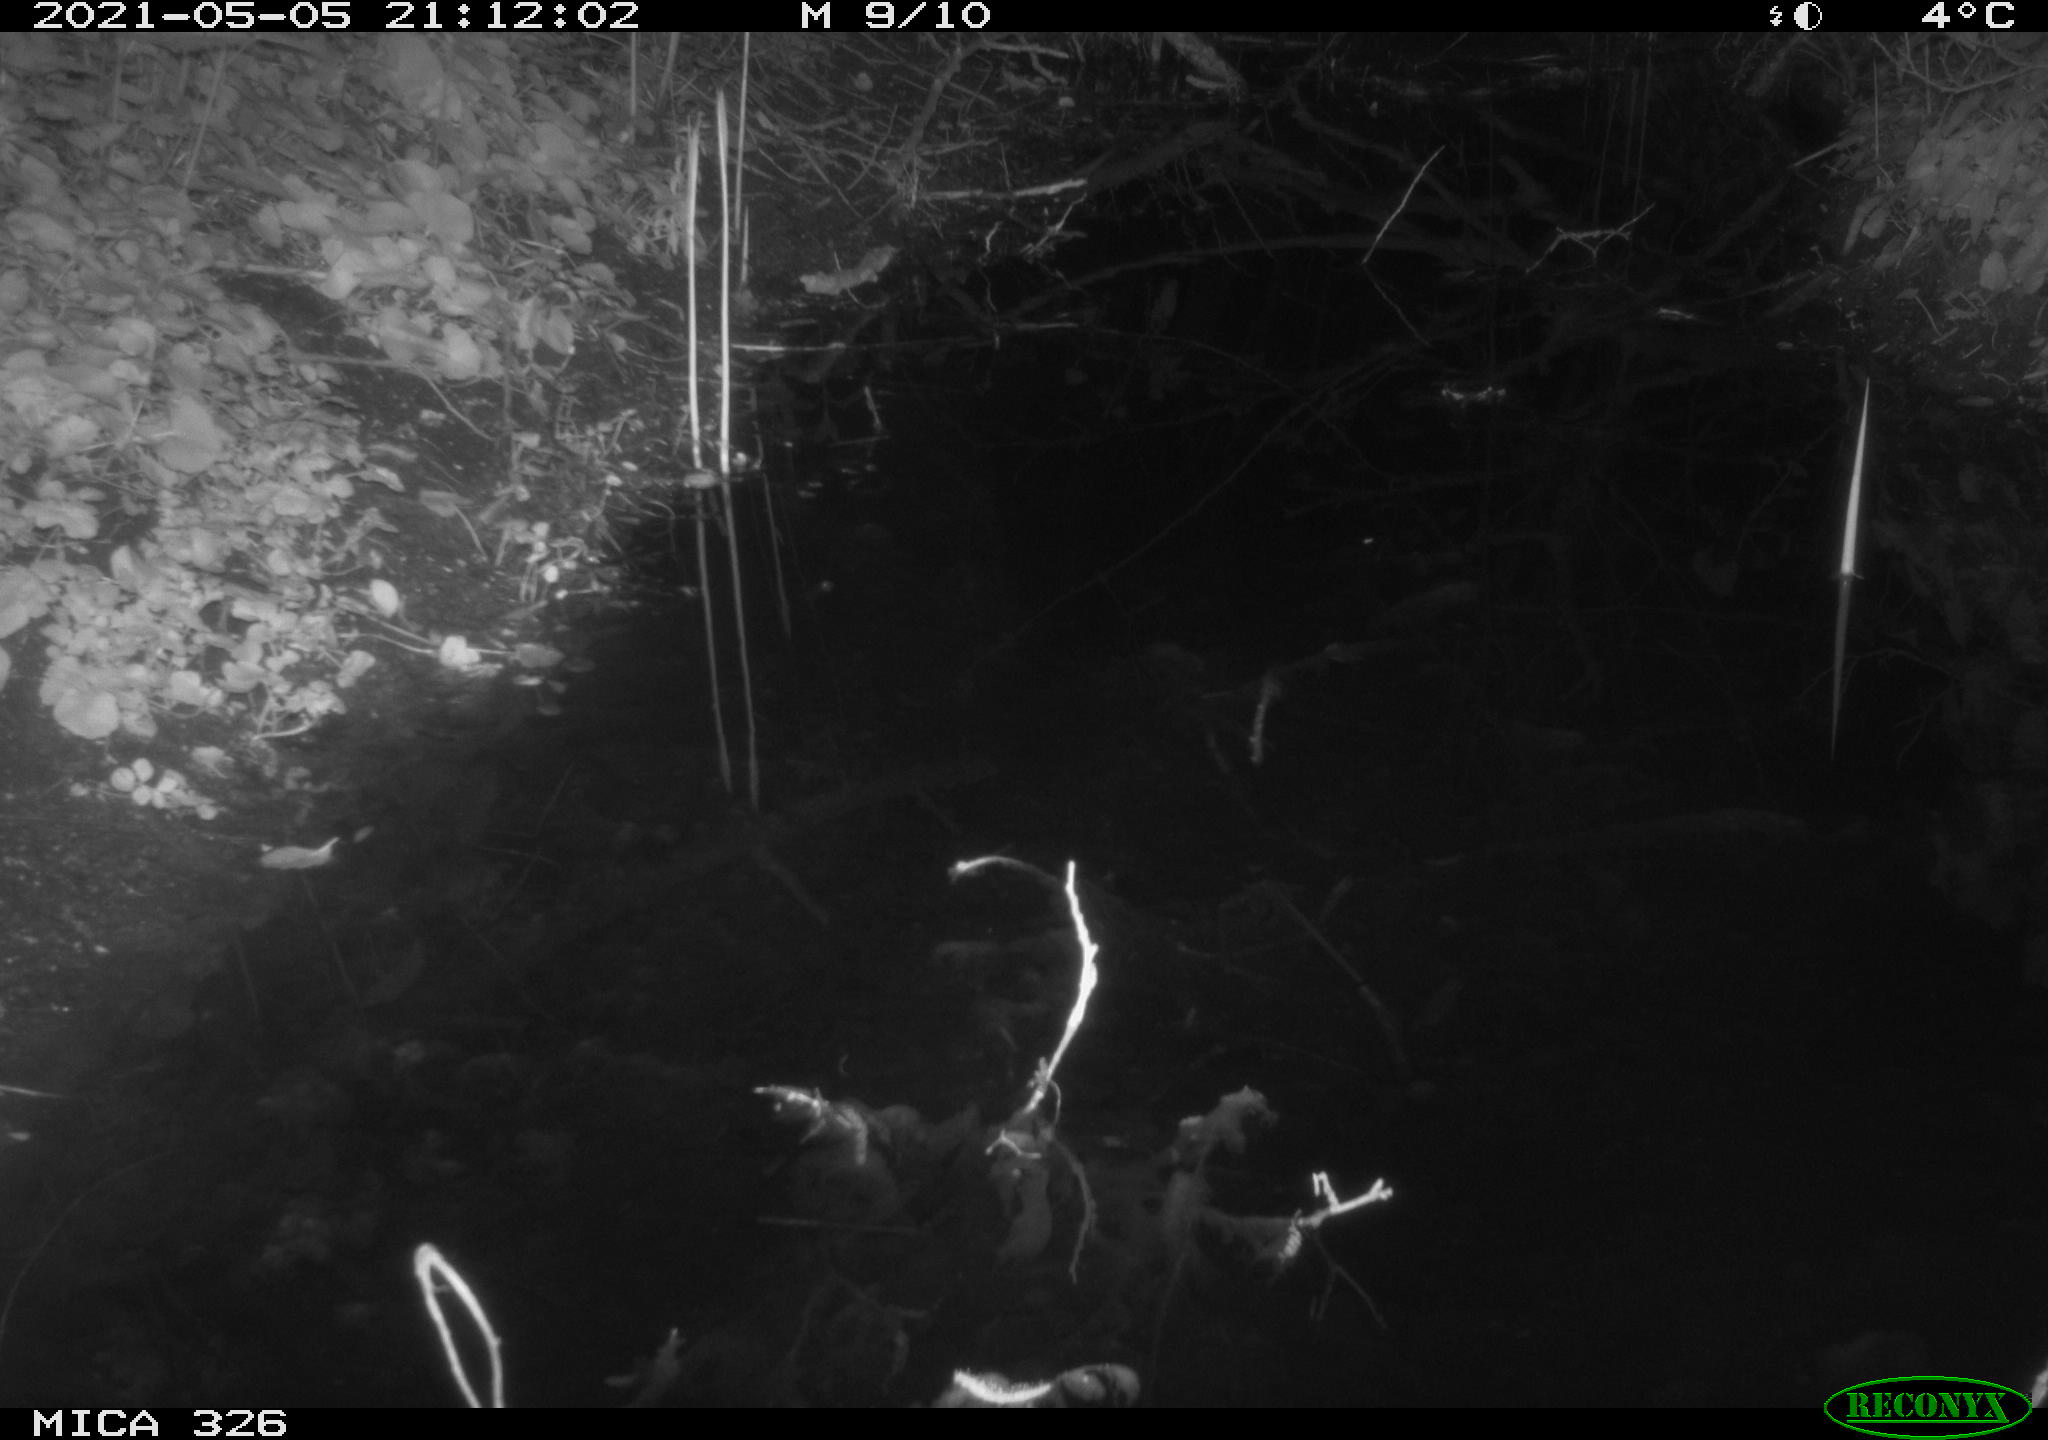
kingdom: Animalia
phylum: Chordata
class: Mammalia
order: Rodentia
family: Muridae
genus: Rattus
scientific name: Rattus norvegicus
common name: Brown rat
